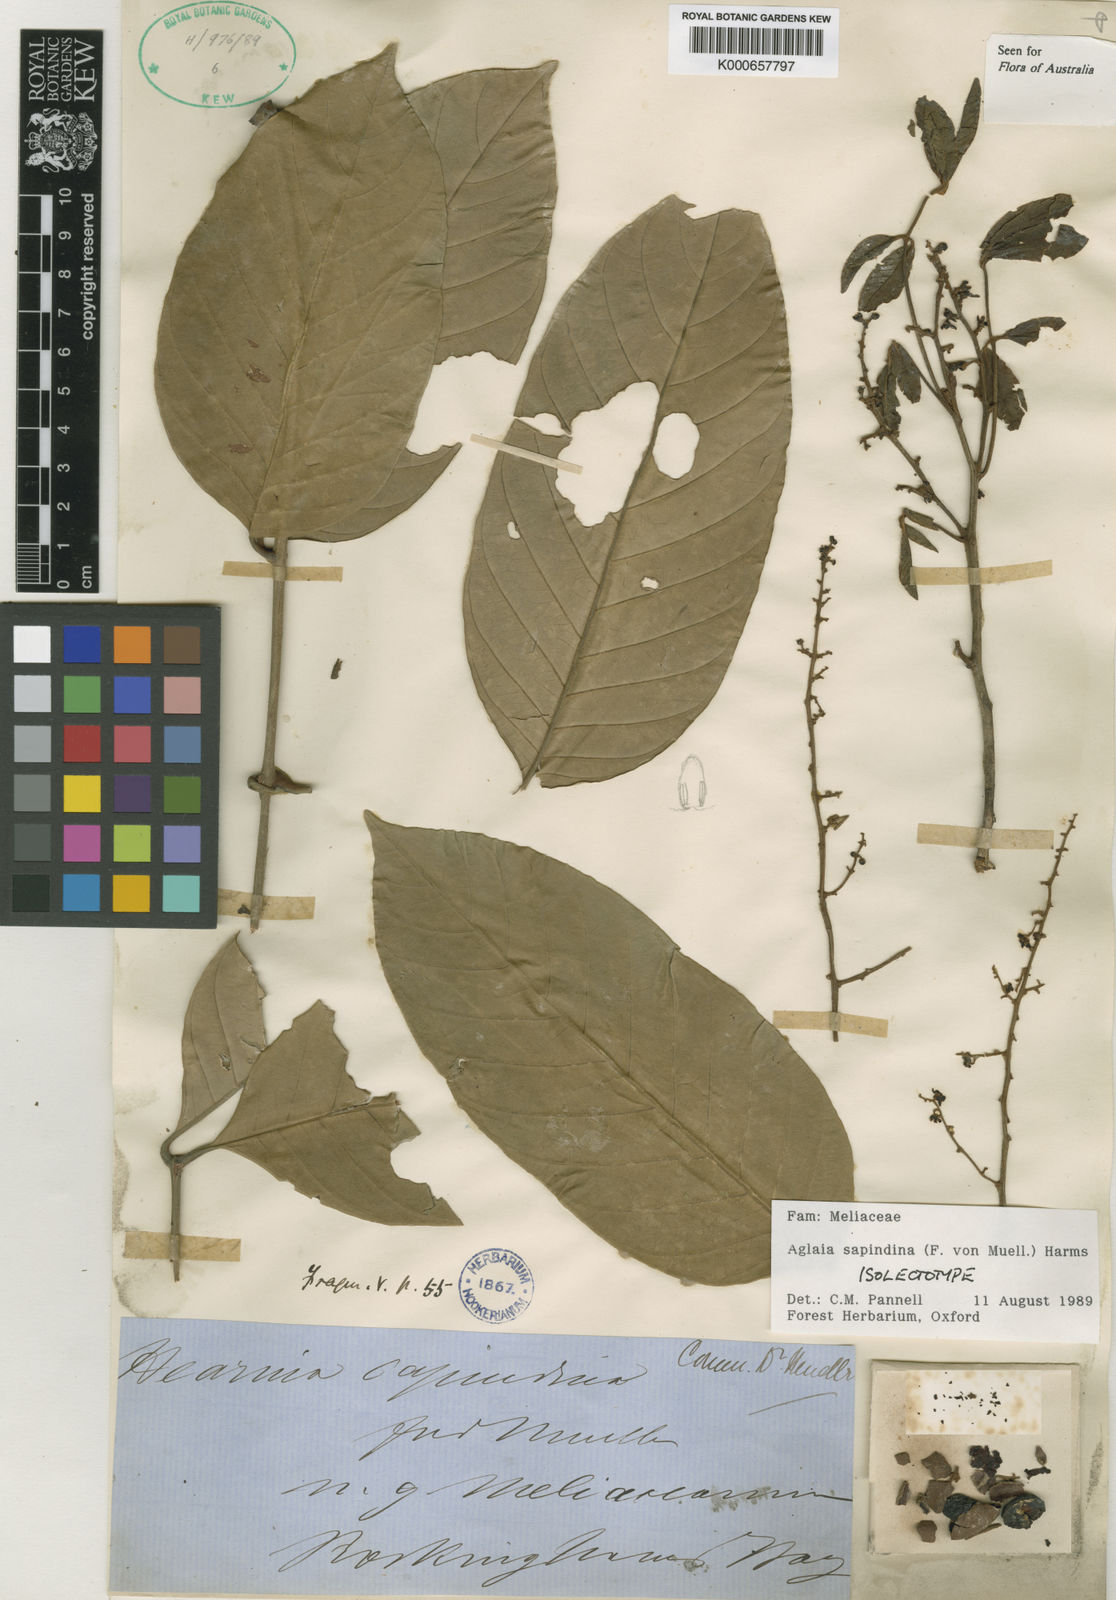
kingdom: Plantae
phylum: Tracheophyta
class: Magnoliopsida
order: Sapindales
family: Meliaceae
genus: Aglaia
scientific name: Aglaia sapindina
